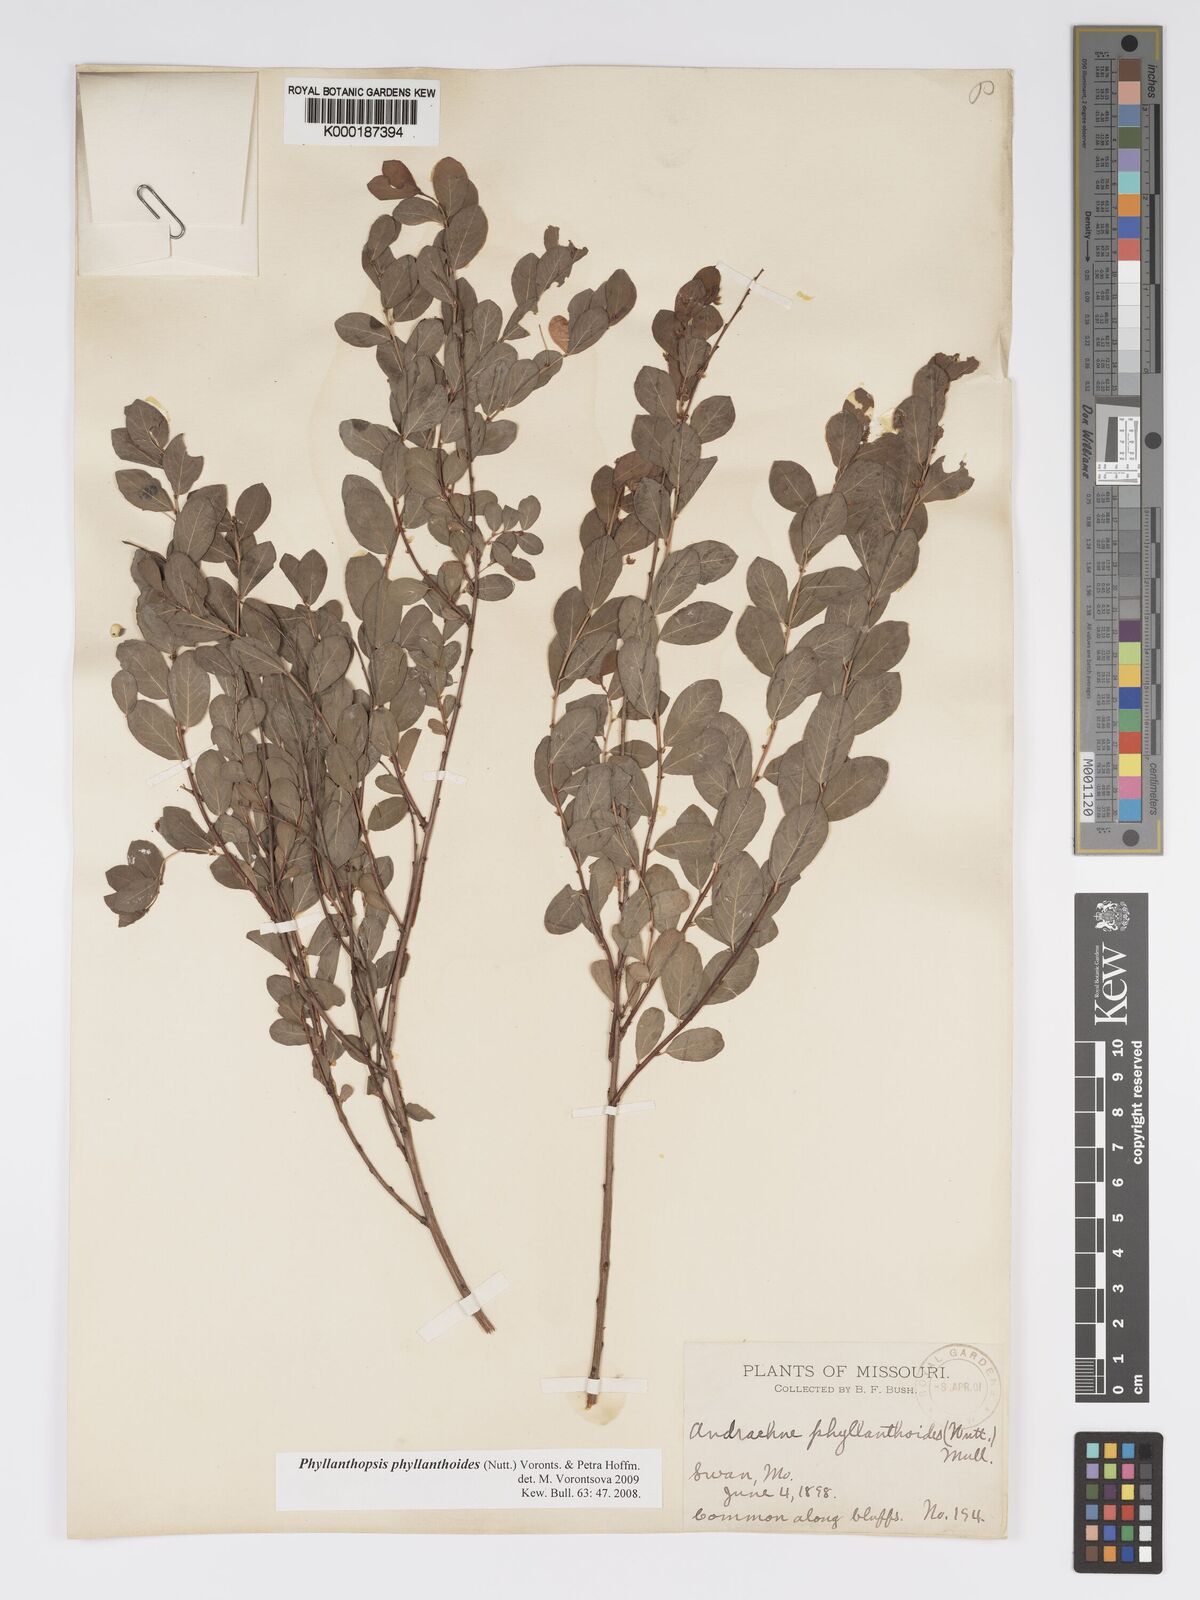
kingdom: Plantae
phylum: Tracheophyta
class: Magnoliopsida
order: Malpighiales
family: Phyllanthaceae
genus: Andrachne
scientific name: Andrachne
